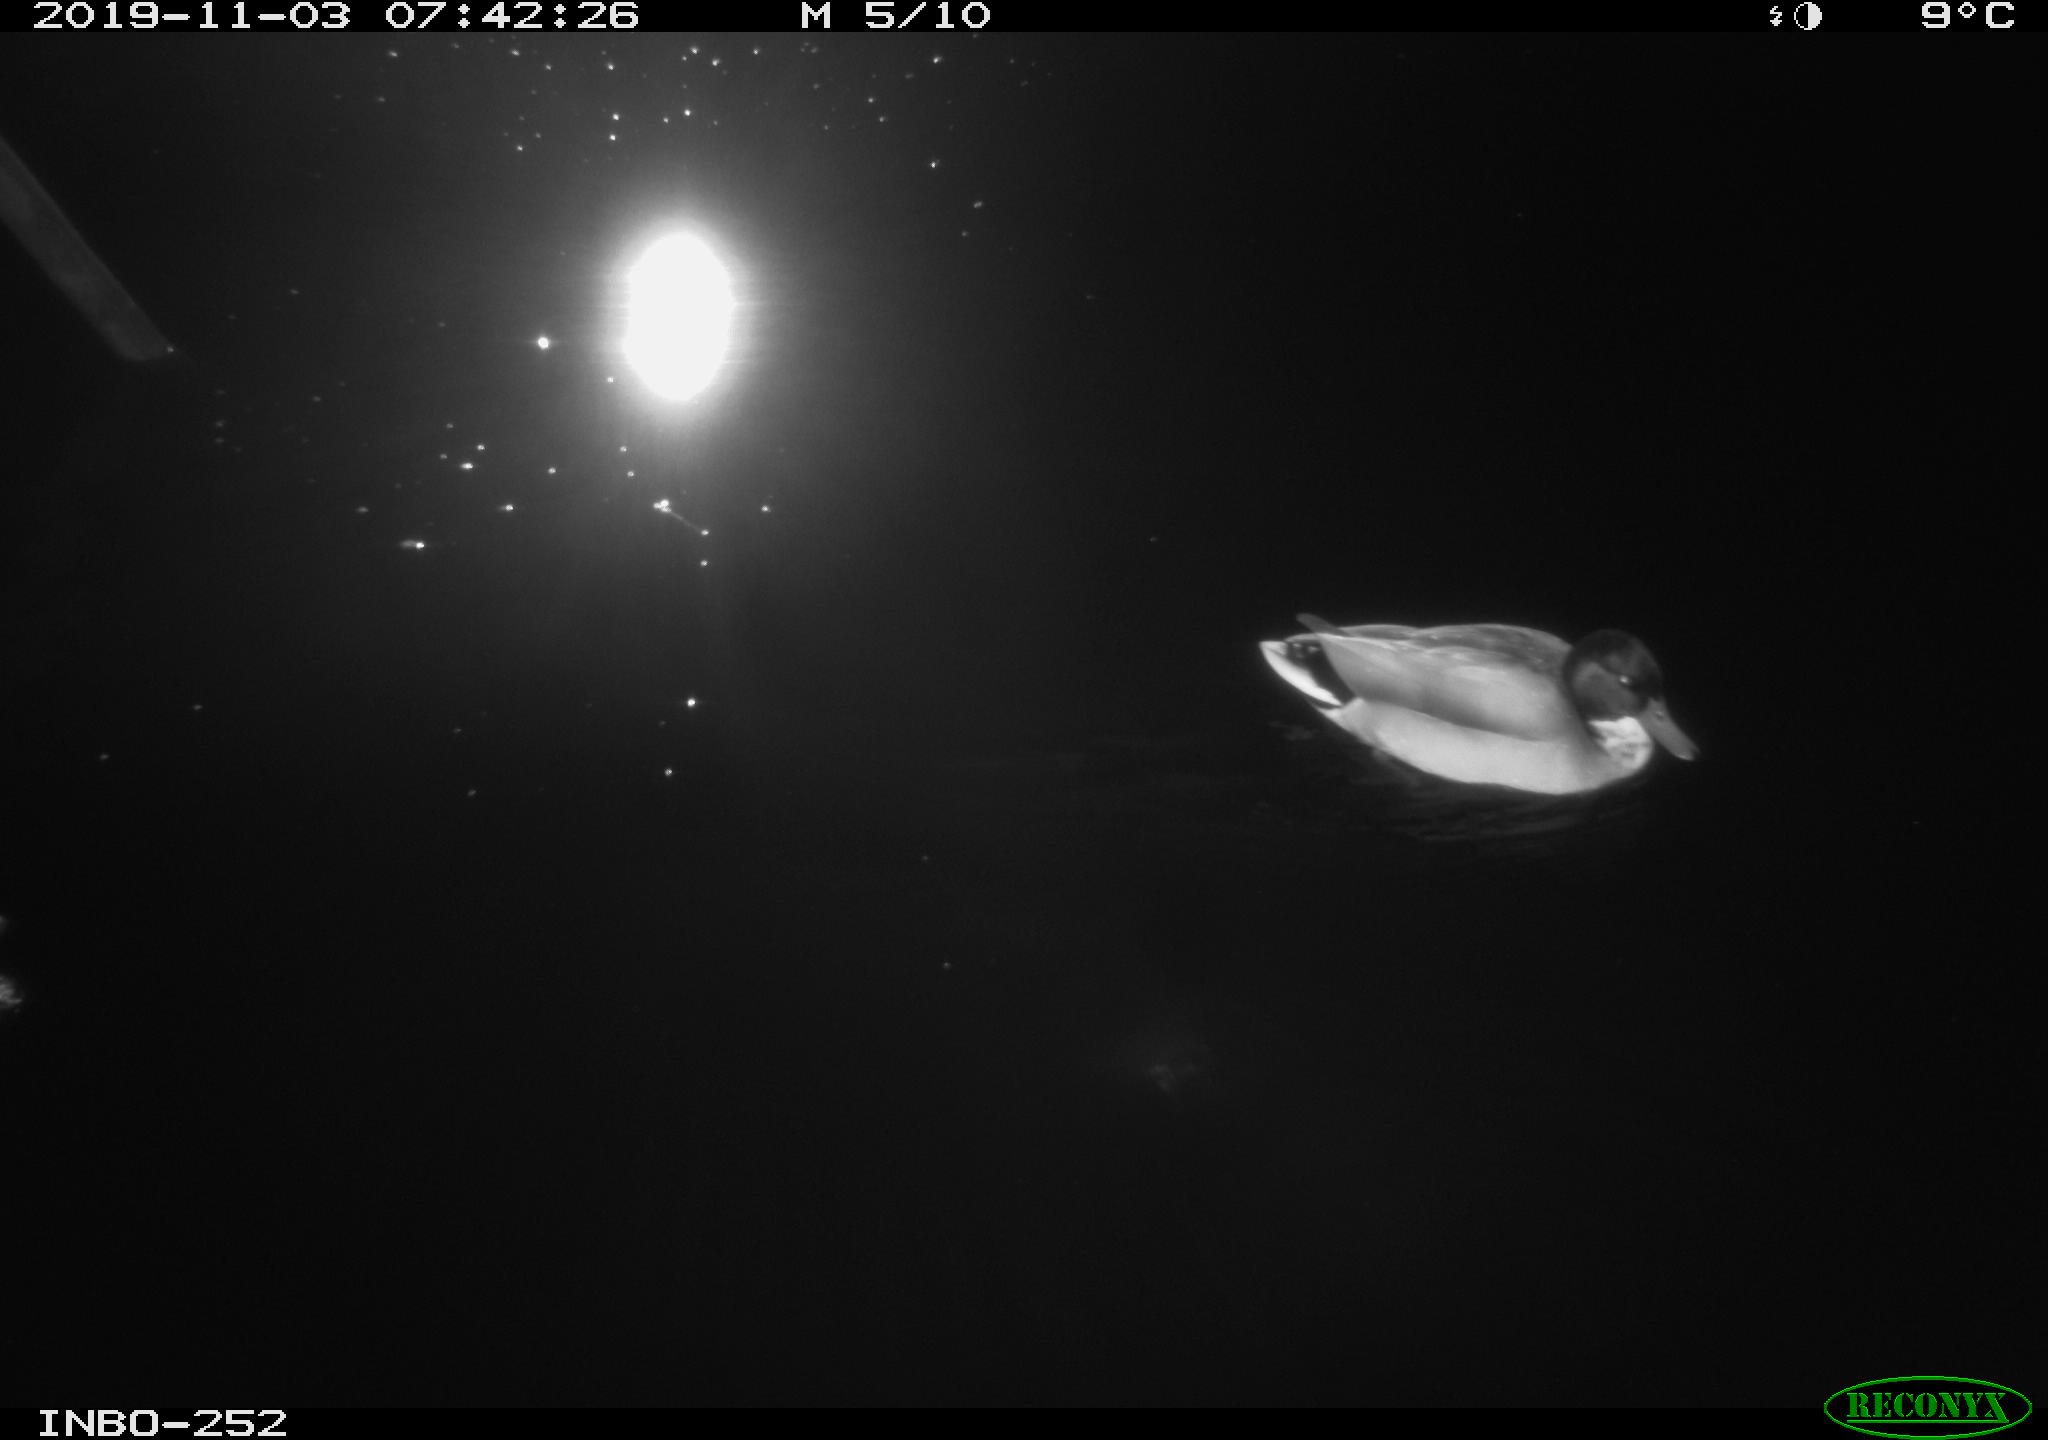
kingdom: Animalia
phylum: Chordata
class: Aves
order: Anseriformes
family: Anatidae
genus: Anas
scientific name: Anas platyrhynchos
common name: Mallard
